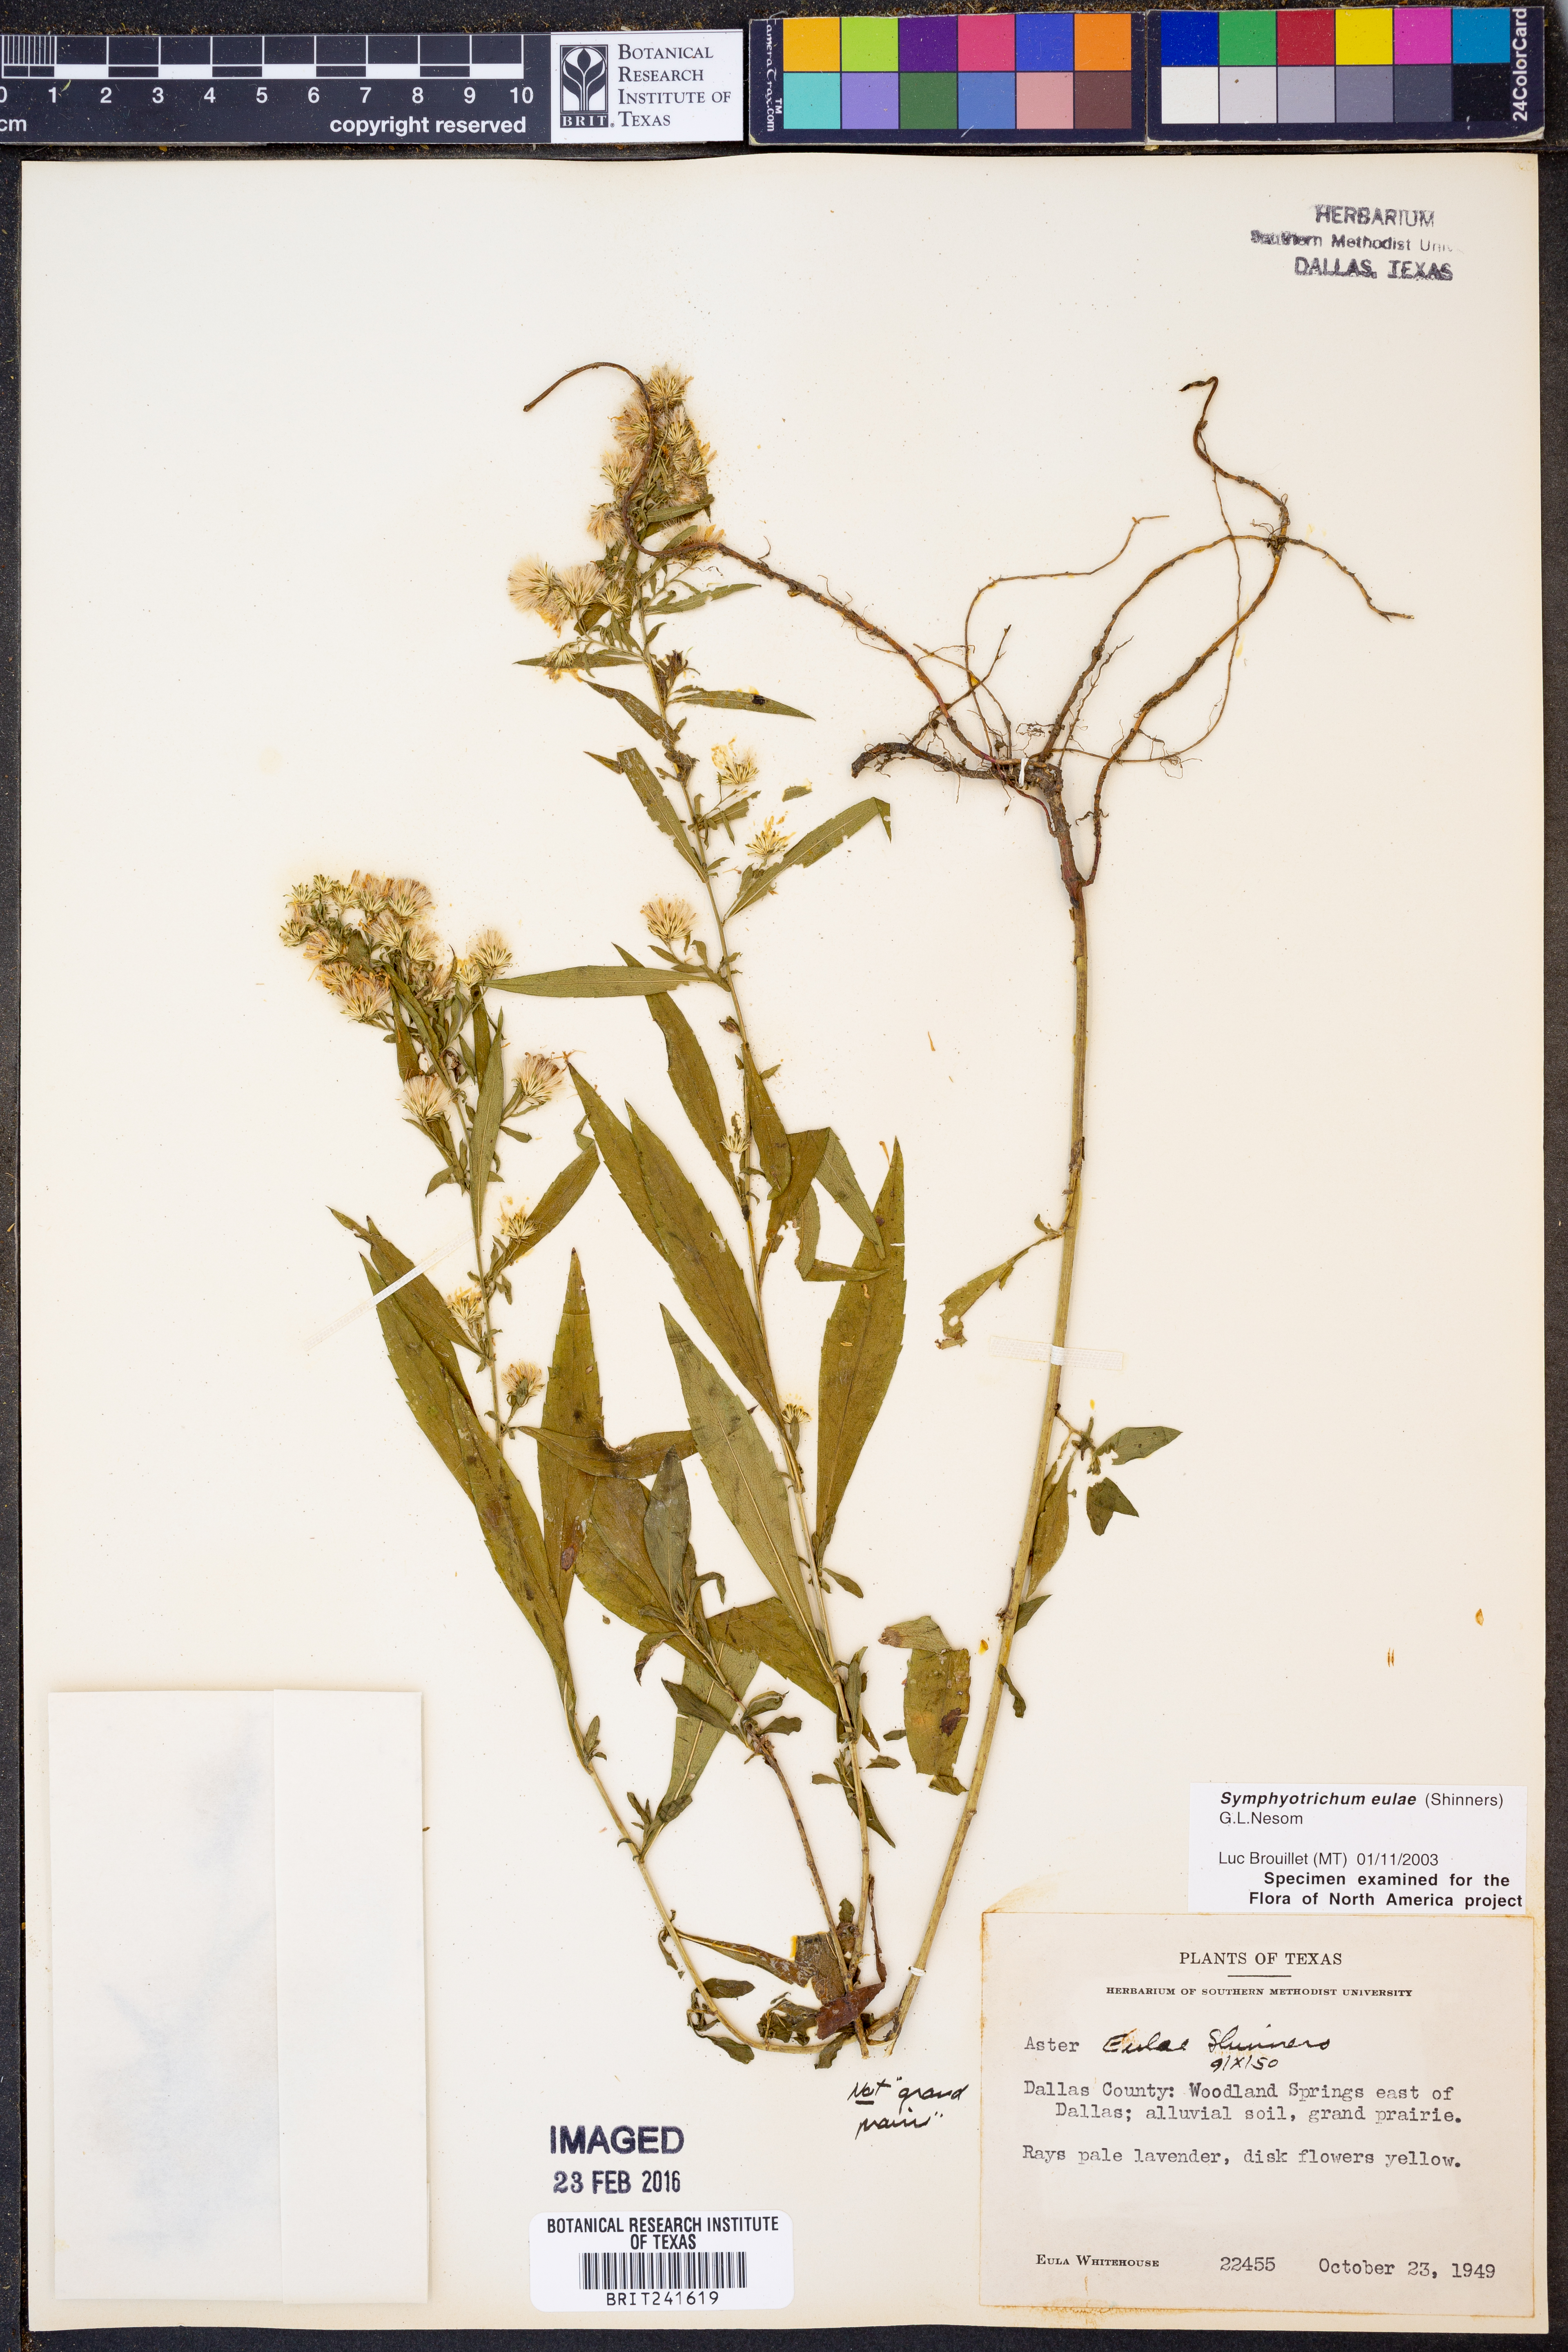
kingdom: Plantae
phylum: Tracheophyta
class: Magnoliopsida
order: Asterales
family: Asteraceae
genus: Symphyotrichum
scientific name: Symphyotrichum eulae
